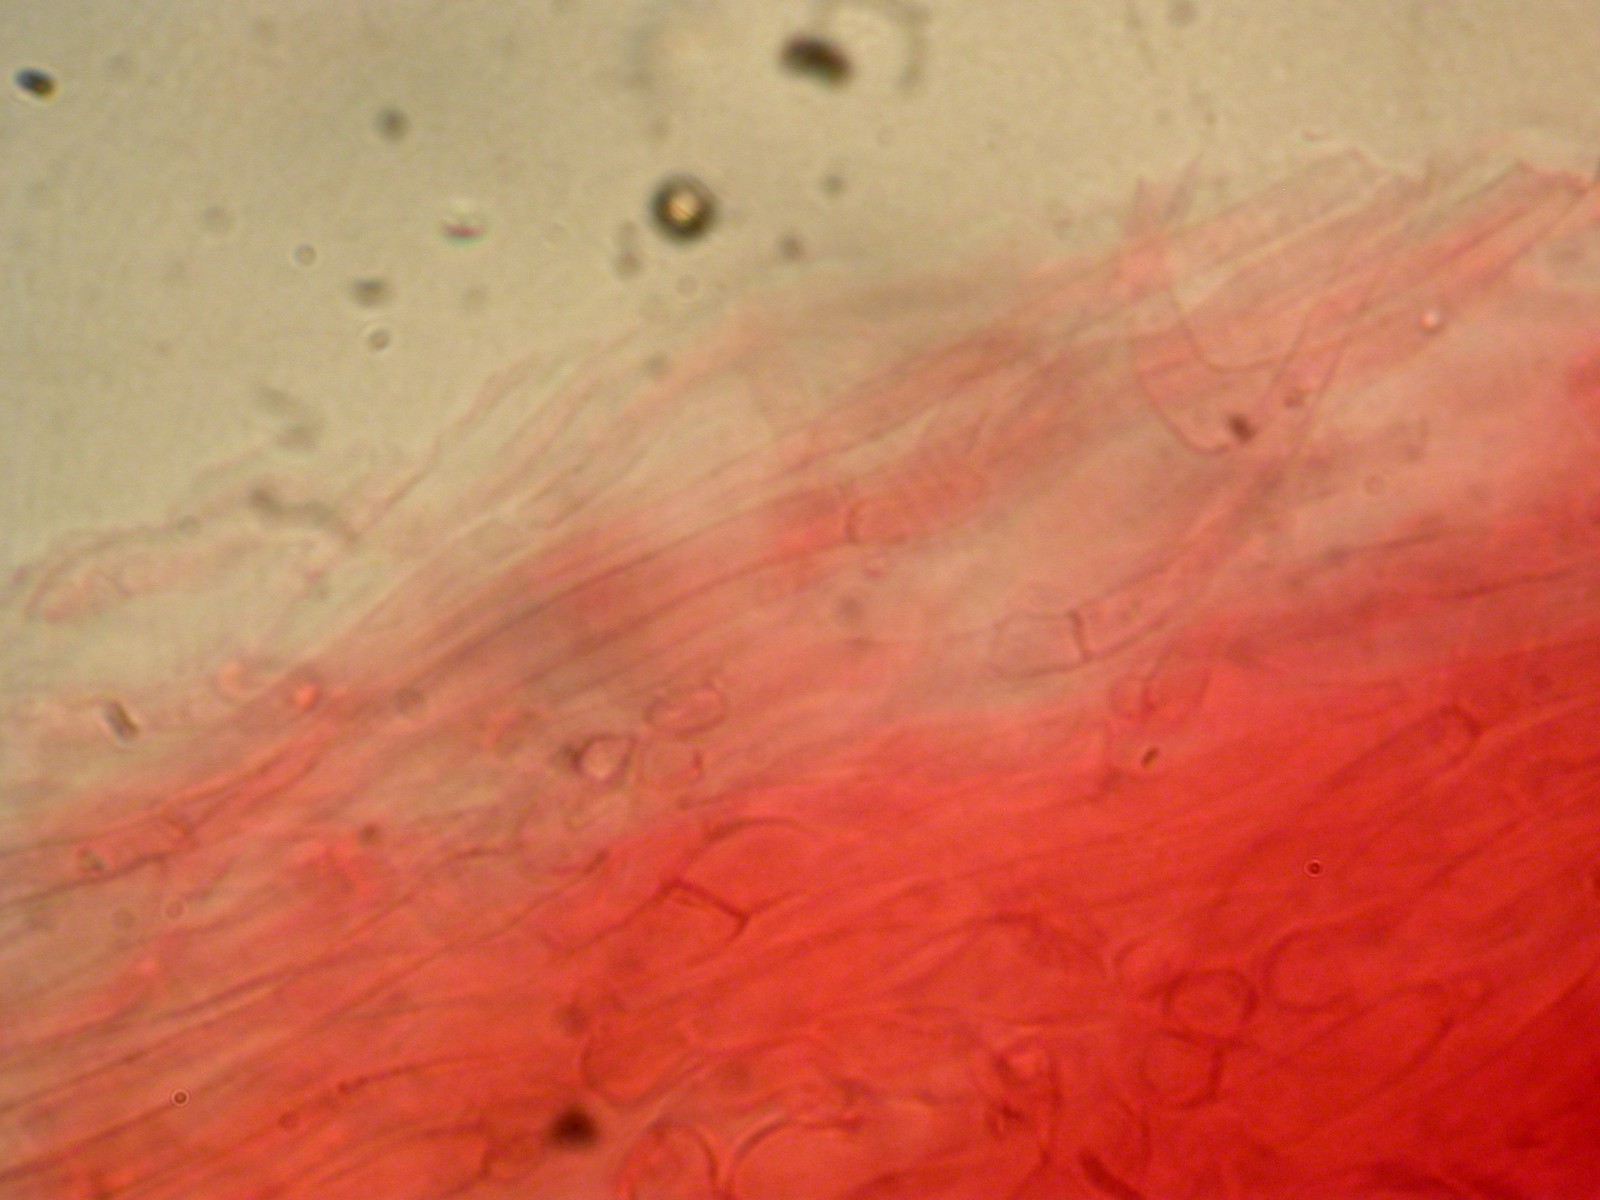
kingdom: Fungi
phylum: Basidiomycota
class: Agaricomycetes
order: Agaricales
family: Hygrophoraceae
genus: Cuphophyllus
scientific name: Cuphophyllus virgineus
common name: brunøjet vokshat
